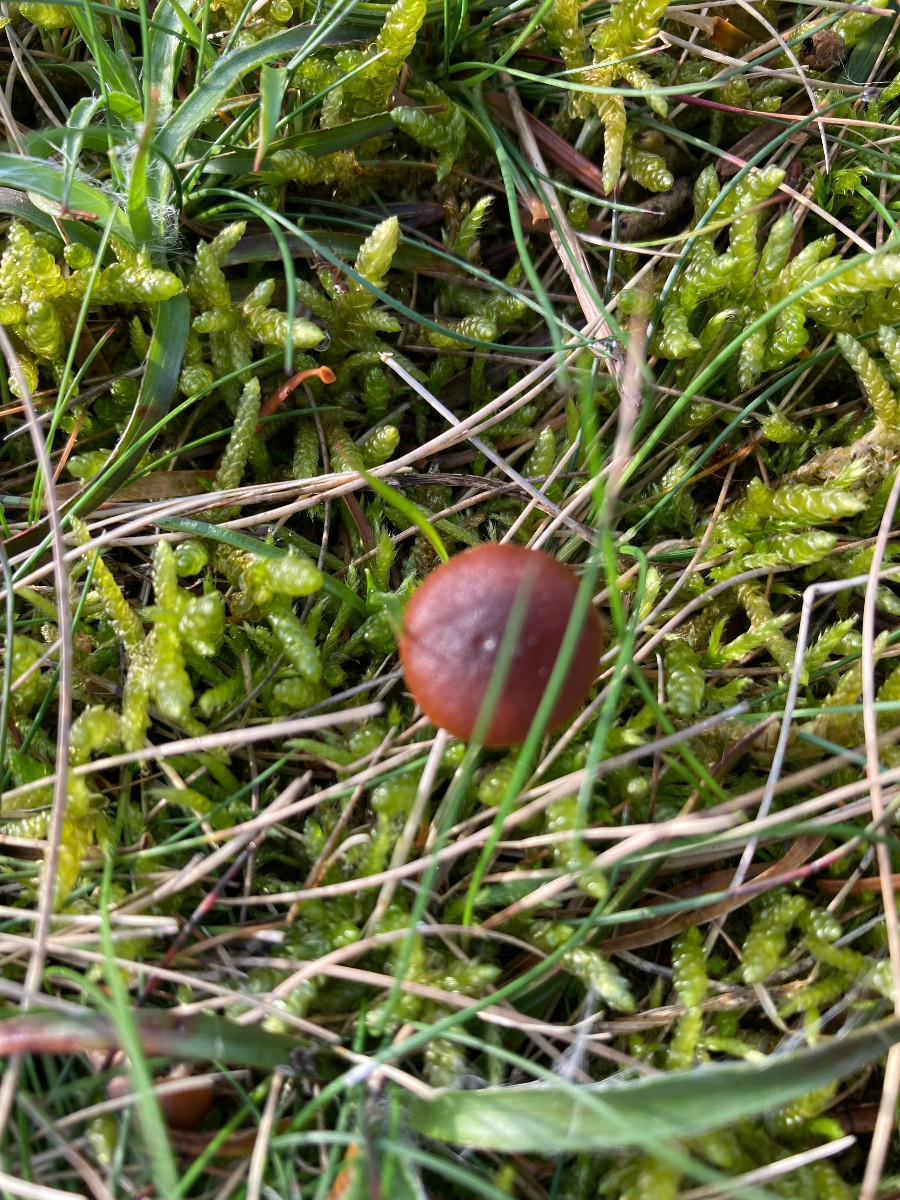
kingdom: Fungi
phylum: Basidiomycota
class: Agaricomycetes
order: Agaricales
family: Strophariaceae
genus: Deconica
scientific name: Deconica
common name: stråhat
